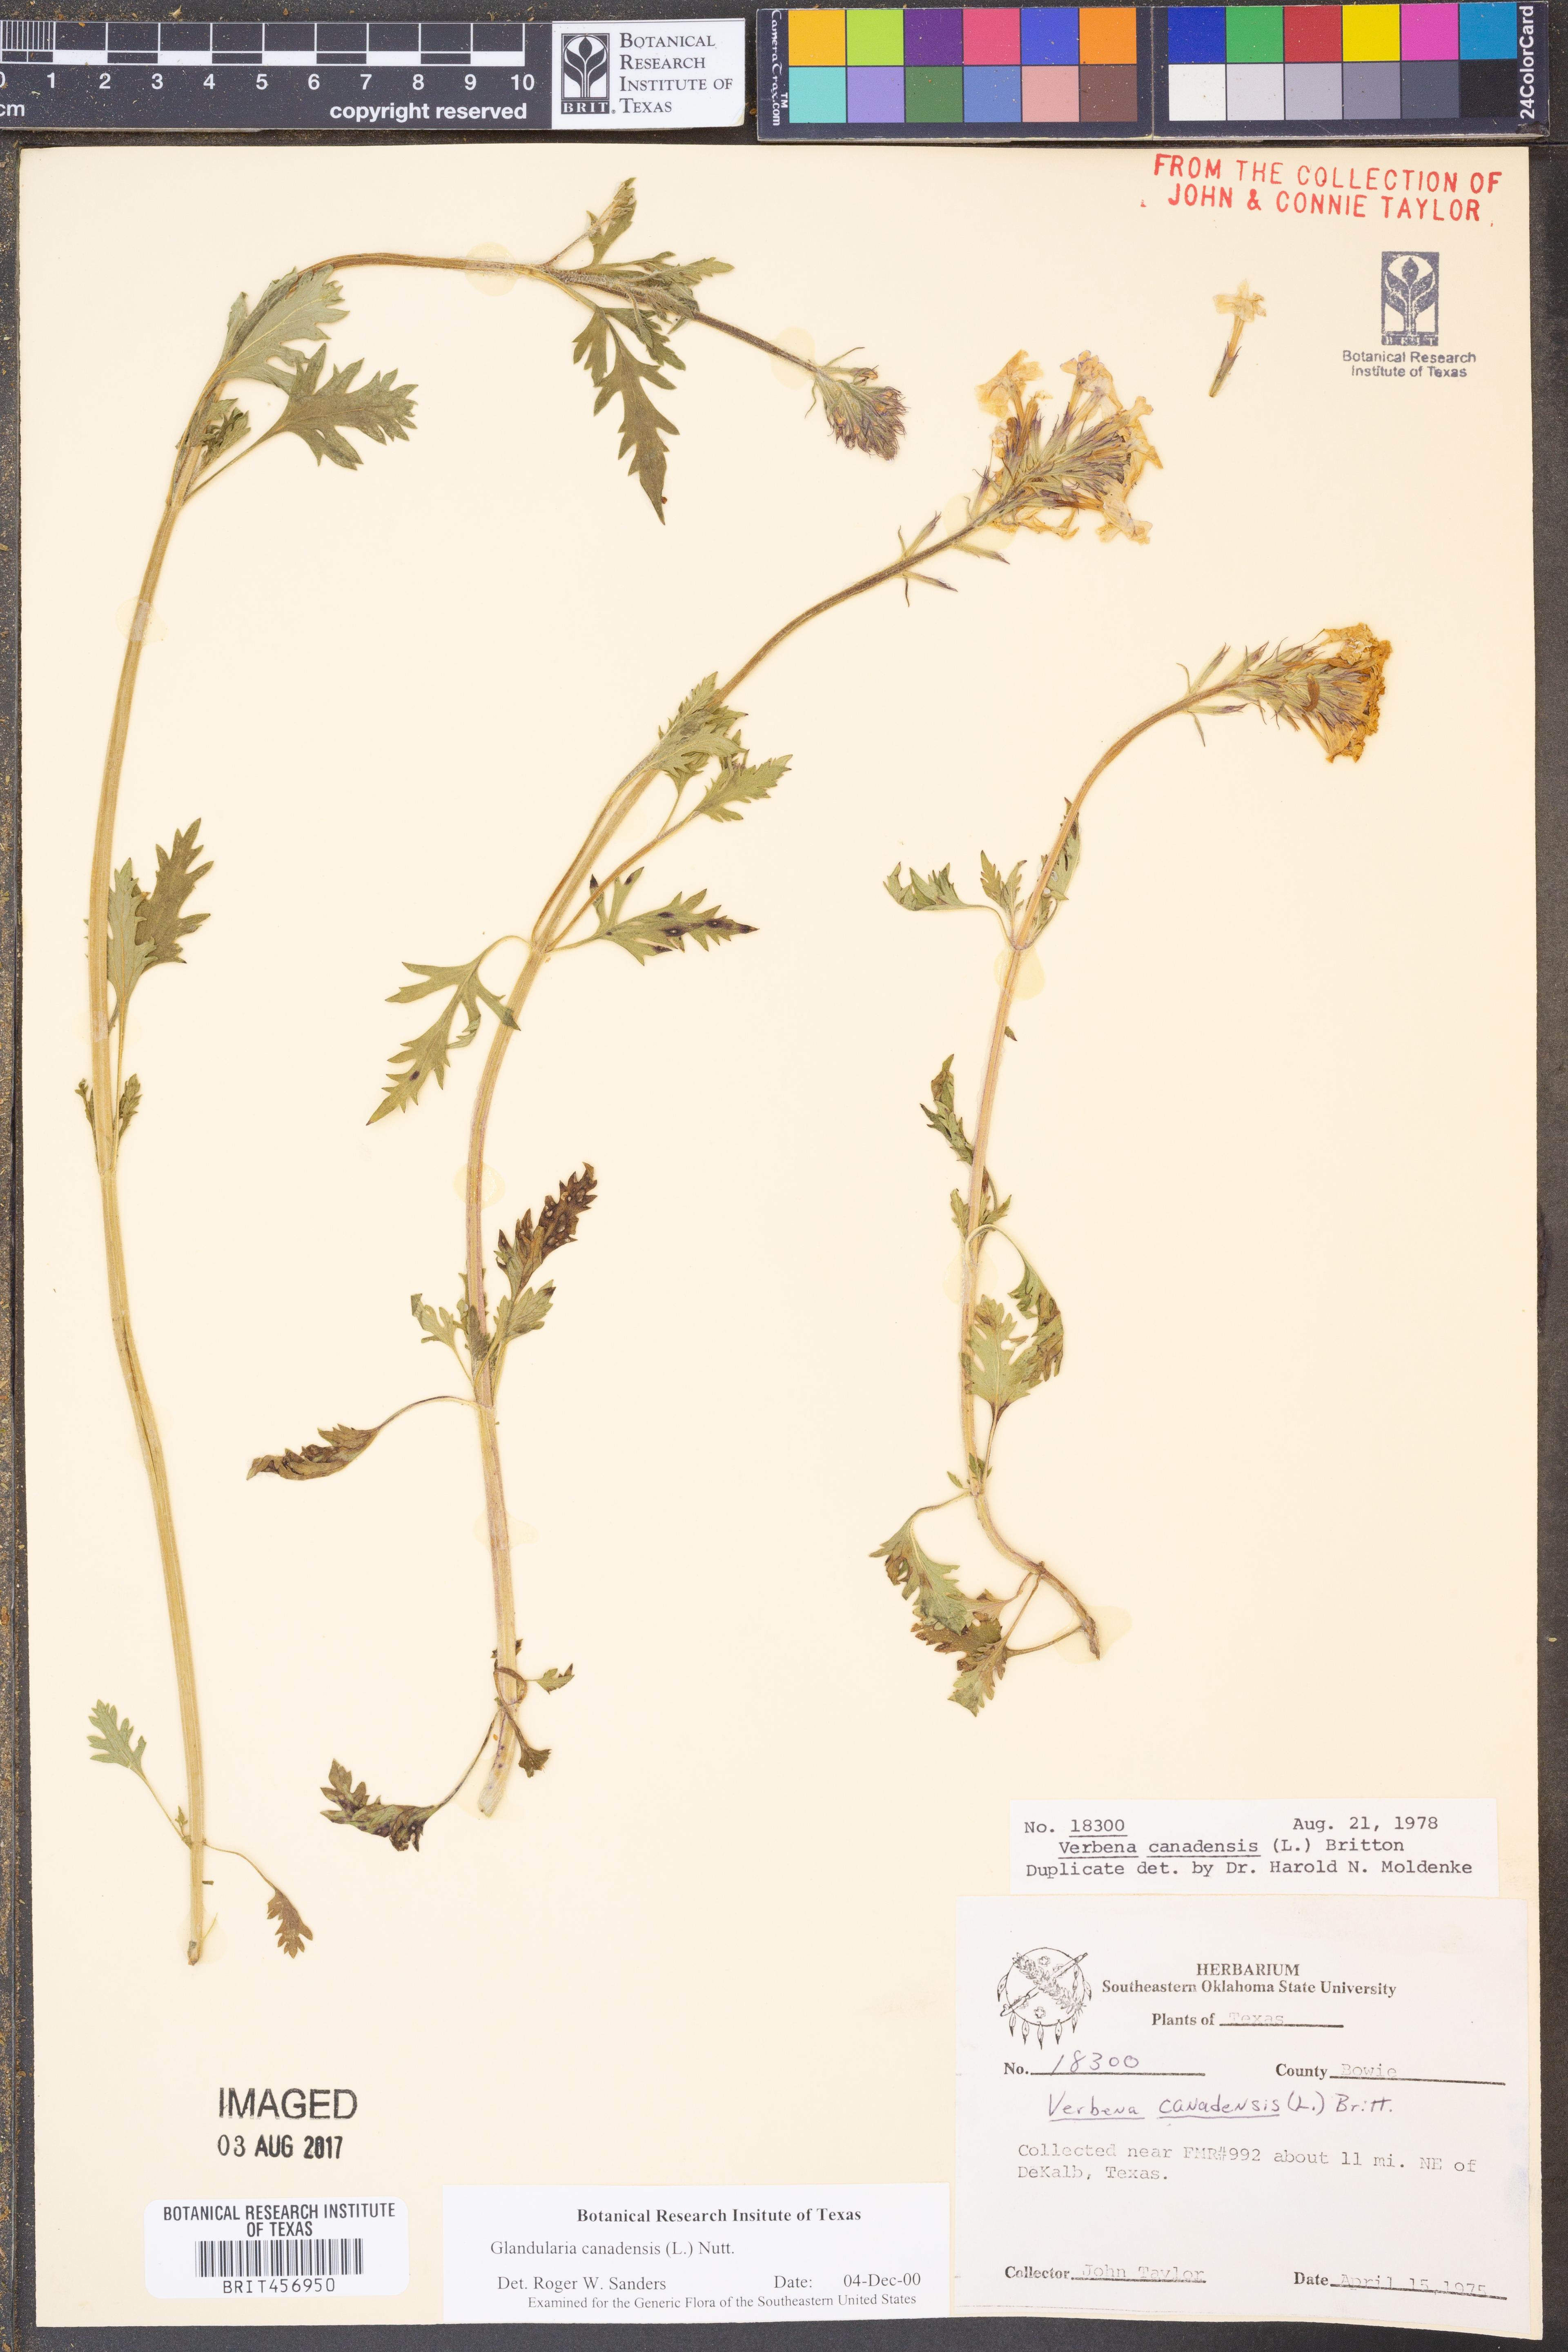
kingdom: Plantae
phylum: Tracheophyta
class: Magnoliopsida
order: Lamiales
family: Verbenaceae
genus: Verbena
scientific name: Verbena canadensis
